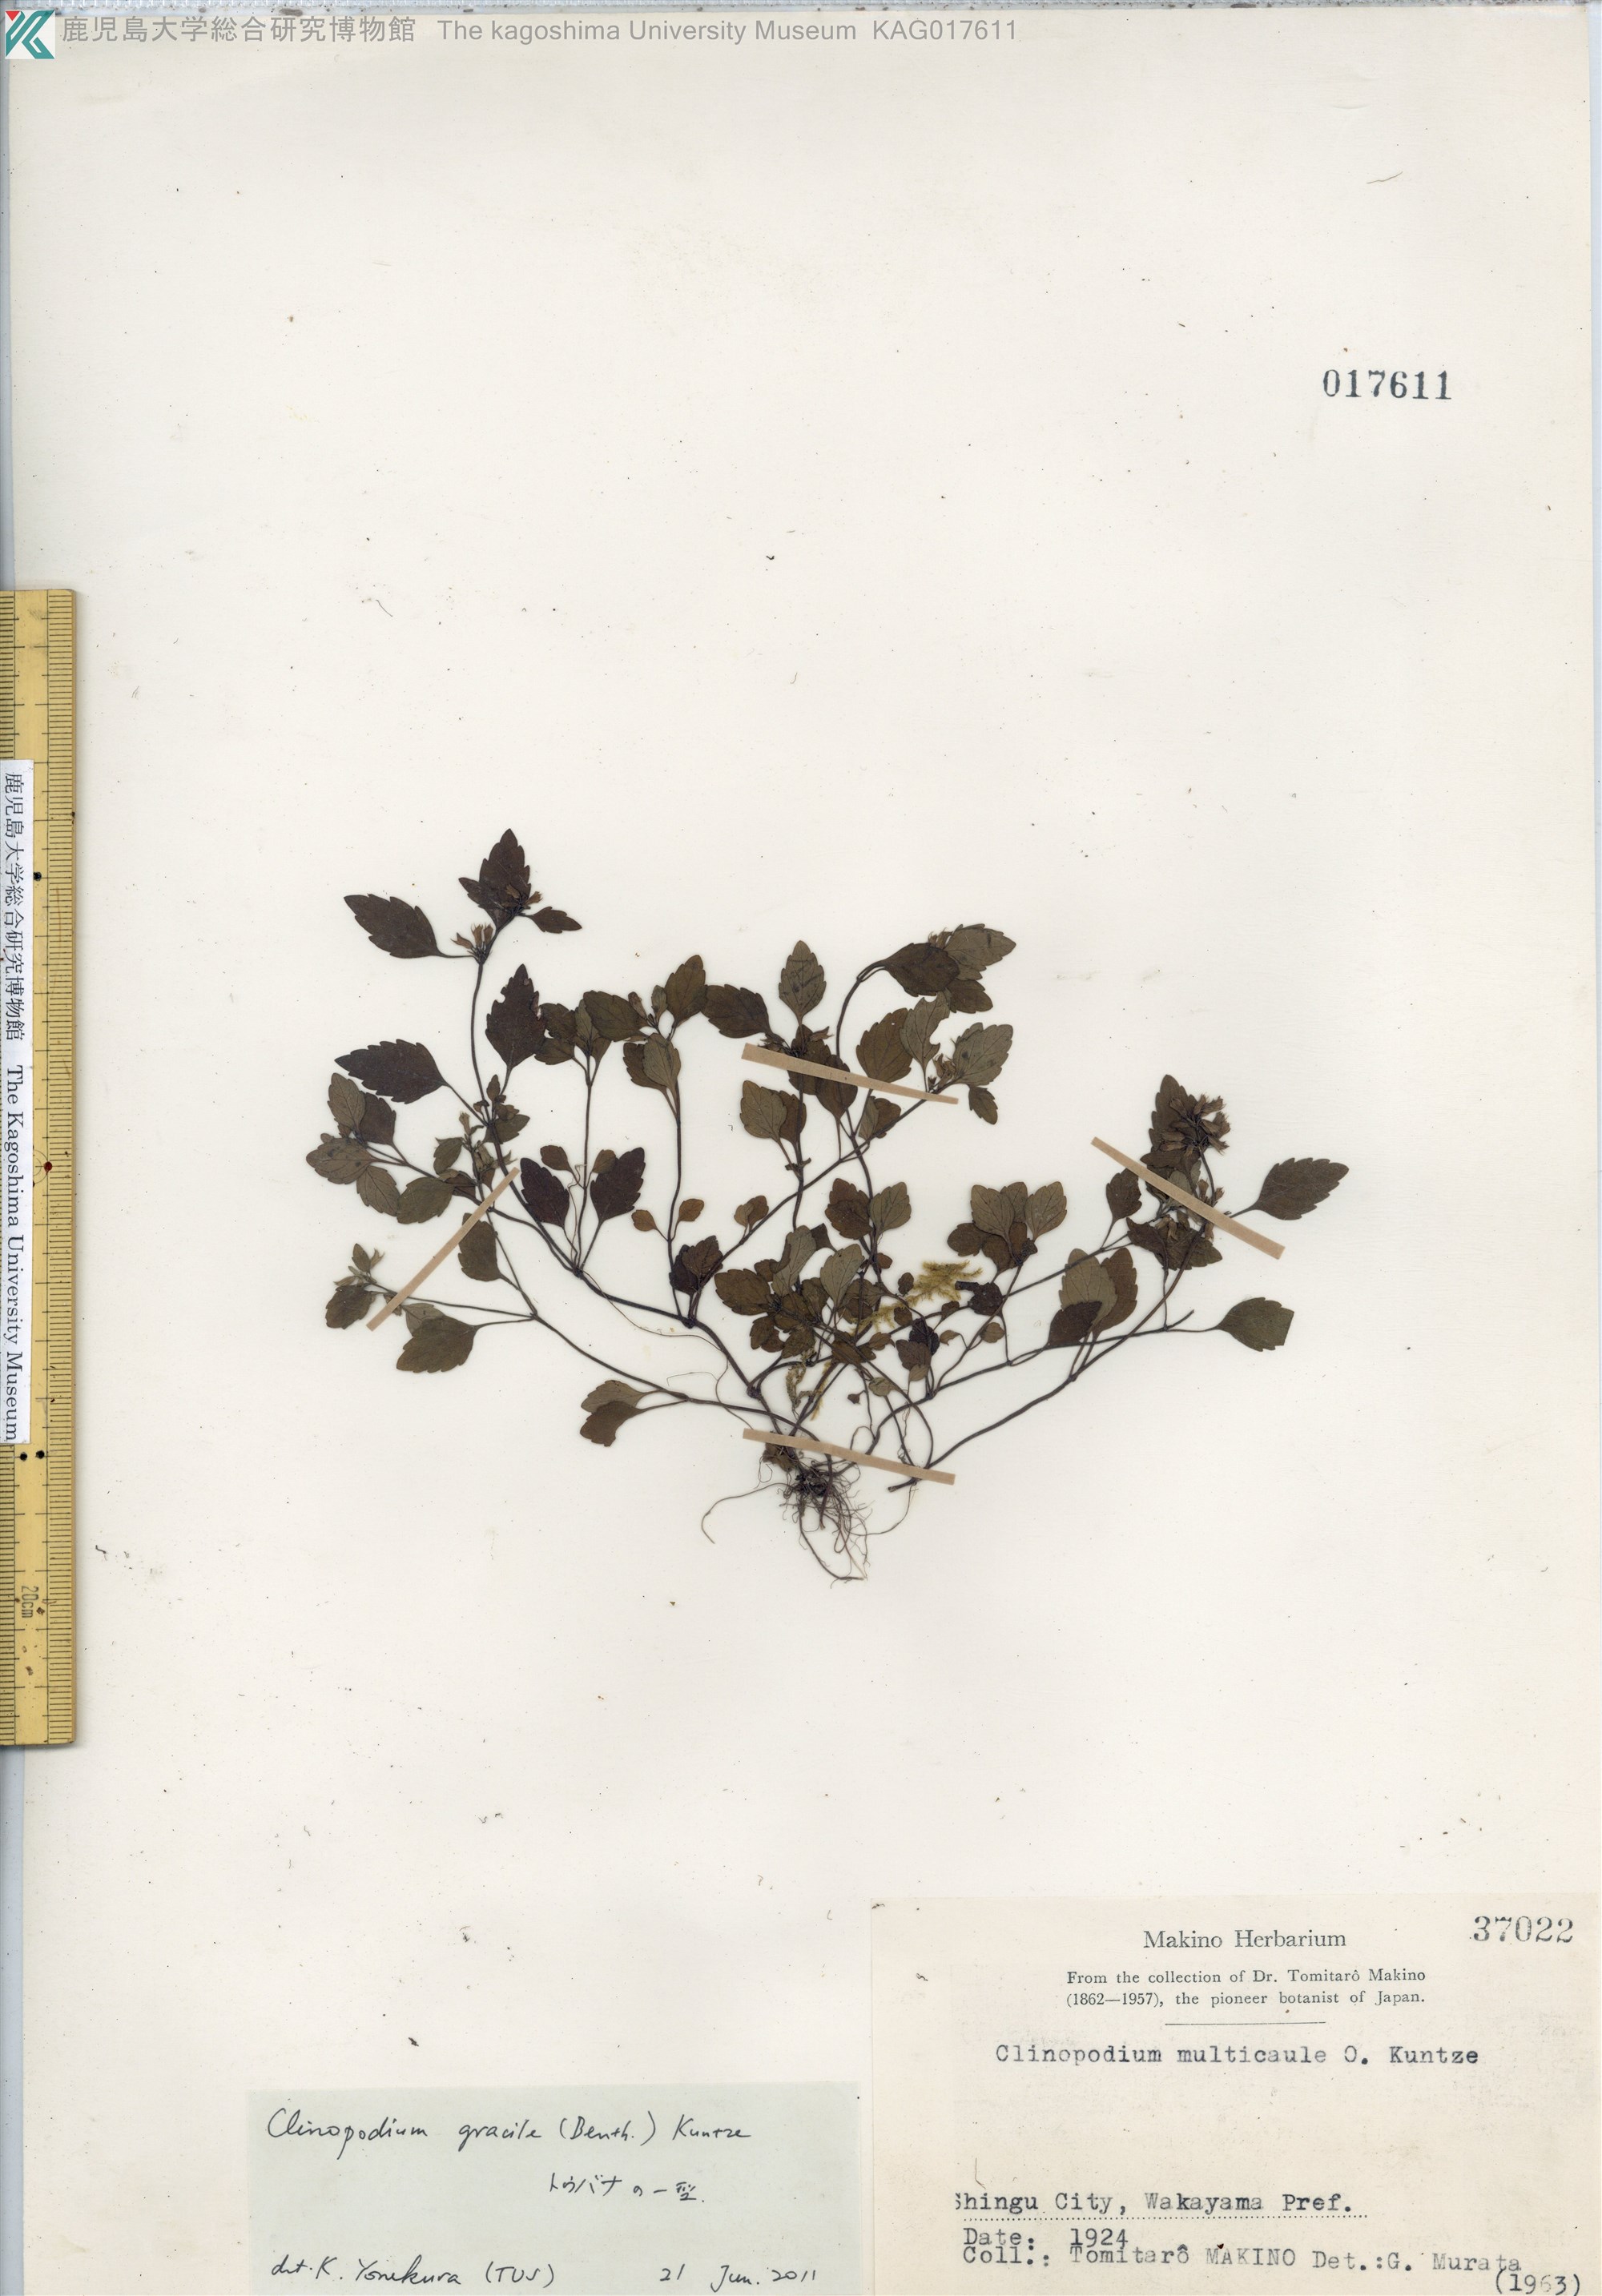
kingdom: Plantae
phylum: Tracheophyta
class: Magnoliopsida
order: Lamiales
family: Lamiaceae
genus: Clinopodium
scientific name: Clinopodium gracile
